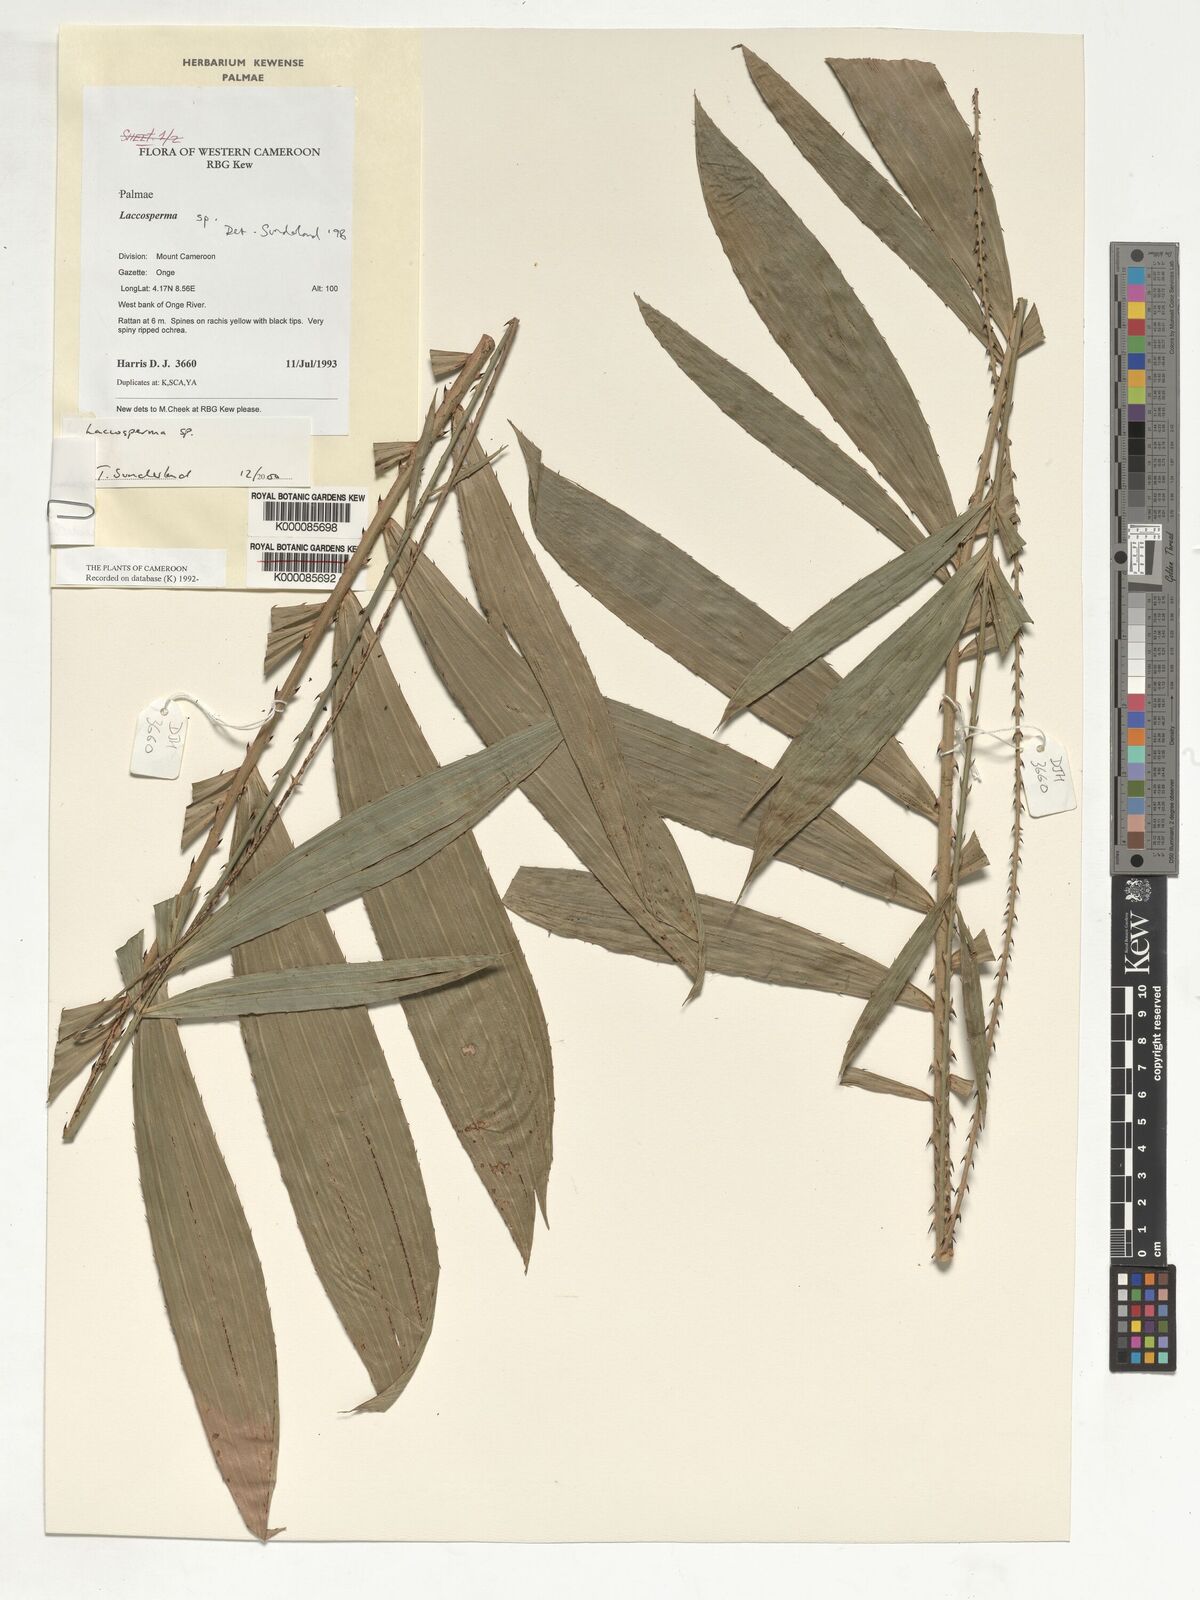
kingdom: Plantae
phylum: Tracheophyta
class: Liliopsida
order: Arecales
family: Arecaceae
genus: Laccosperma
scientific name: Laccosperma
